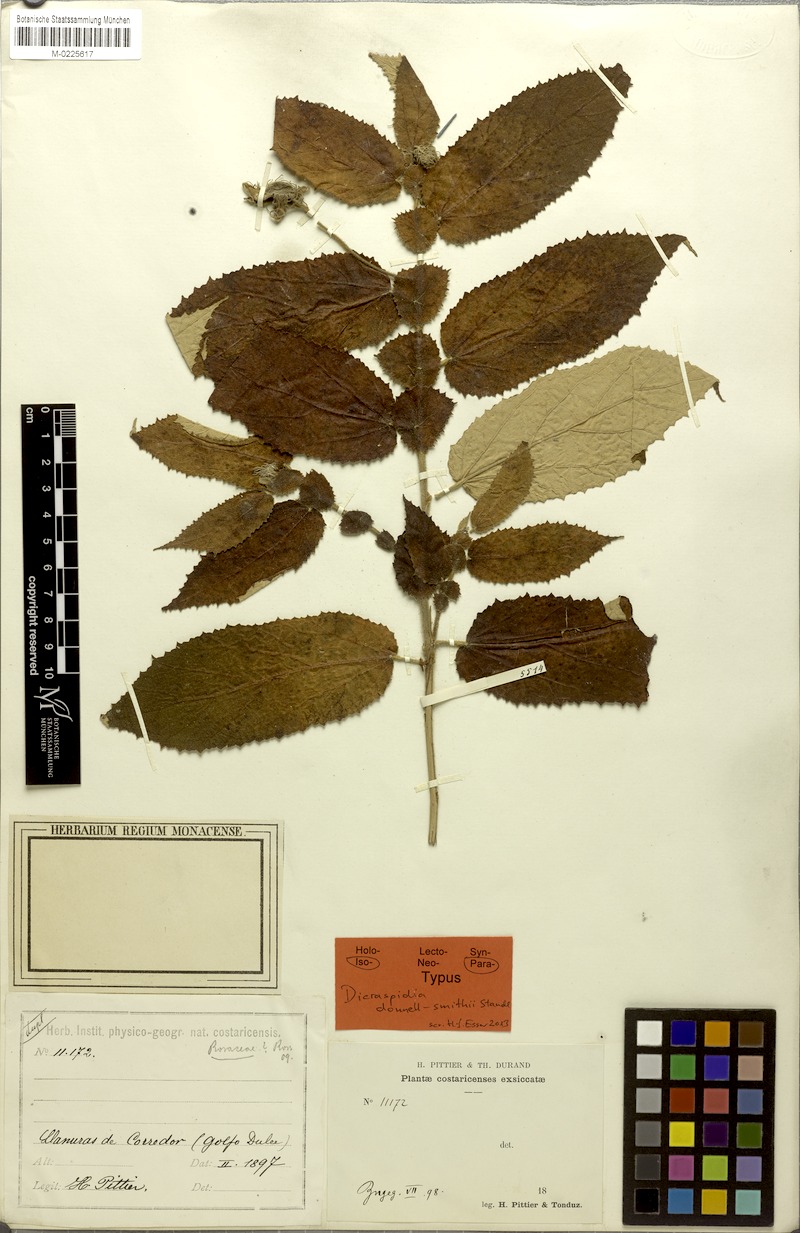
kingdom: Plantae
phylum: Tracheophyta
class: Magnoliopsida
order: Malvales
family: Muntingiaceae
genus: Dicraspidia
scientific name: Dicraspidia donnell-smithii
